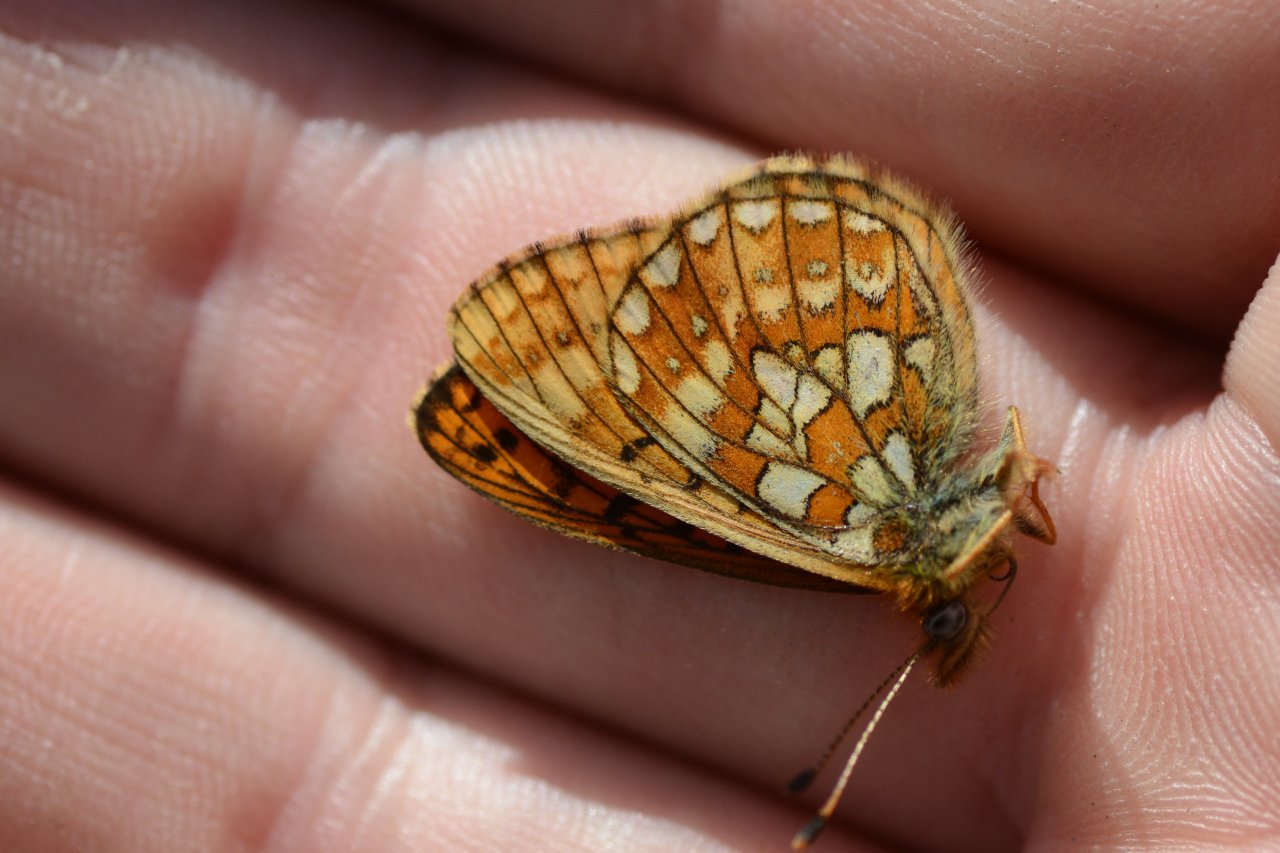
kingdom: Animalia
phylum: Arthropoda
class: Insecta
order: Lepidoptera
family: Nymphalidae
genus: Boloria
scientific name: Boloria eunomia
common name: Bog Fritillary
